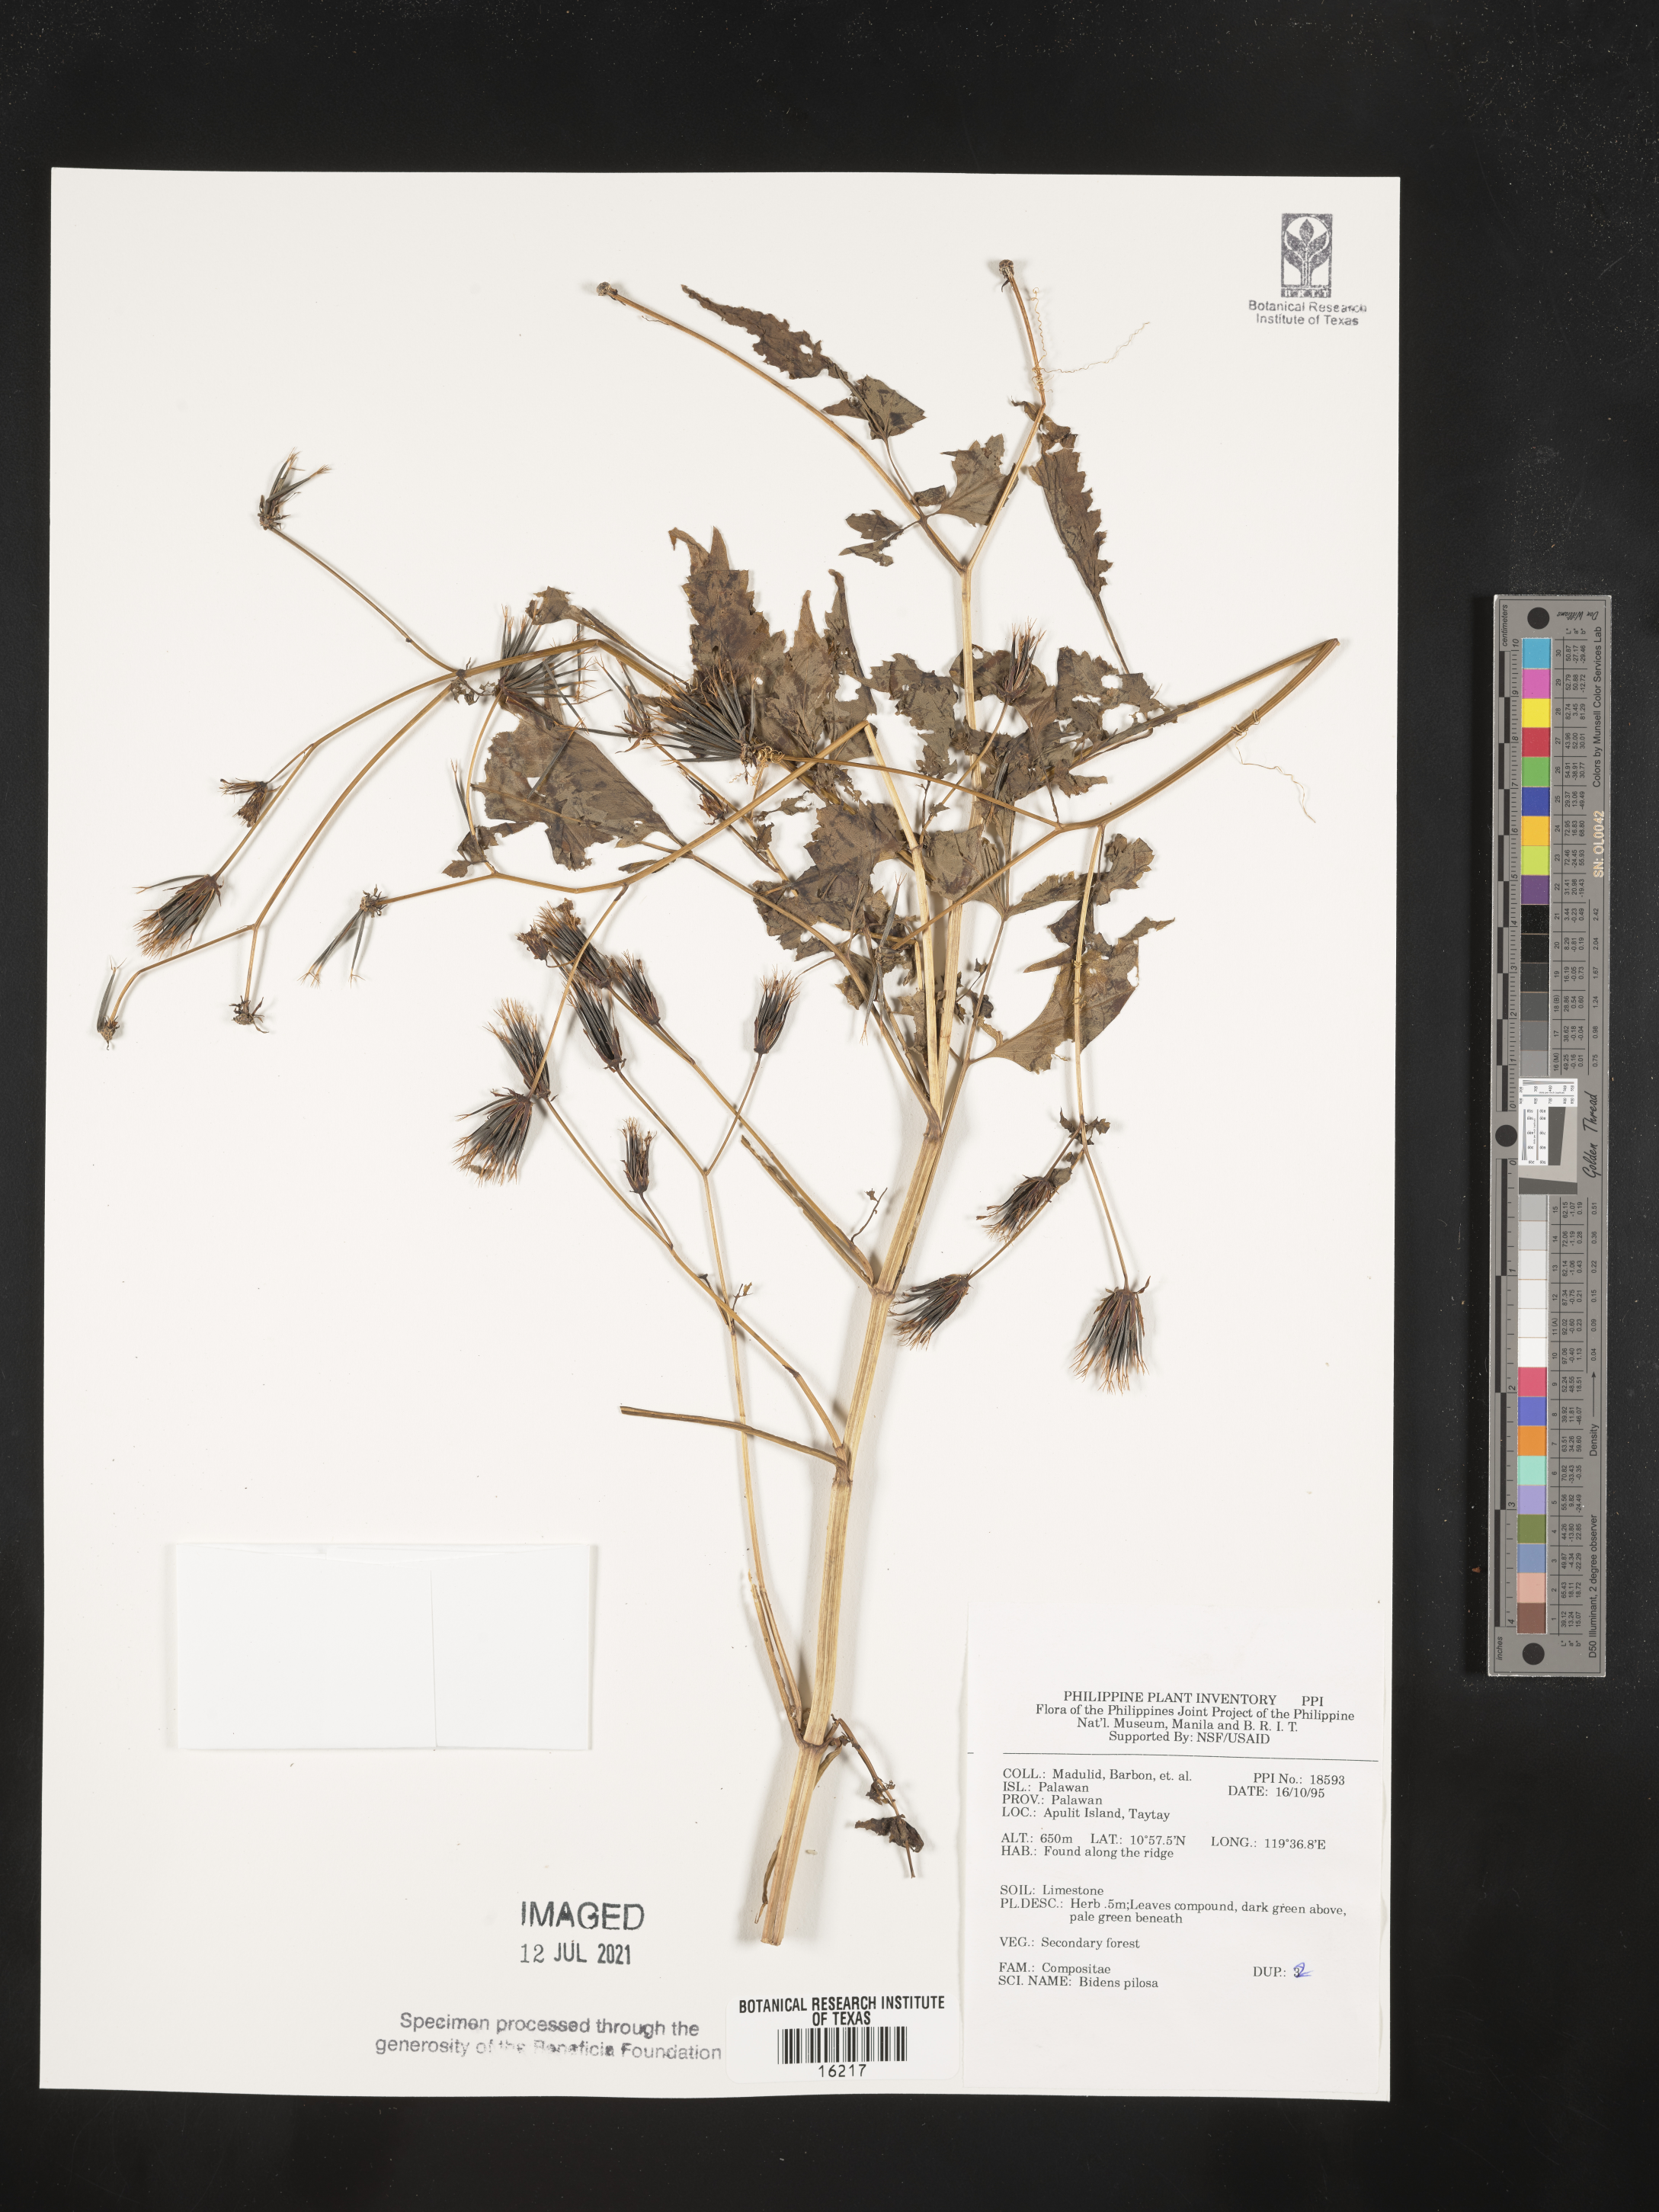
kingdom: Plantae
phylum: Tracheophyta
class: Magnoliopsida
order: Asterales
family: Asteraceae
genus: Bidens
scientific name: Bidens pilosa
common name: Black-jack
